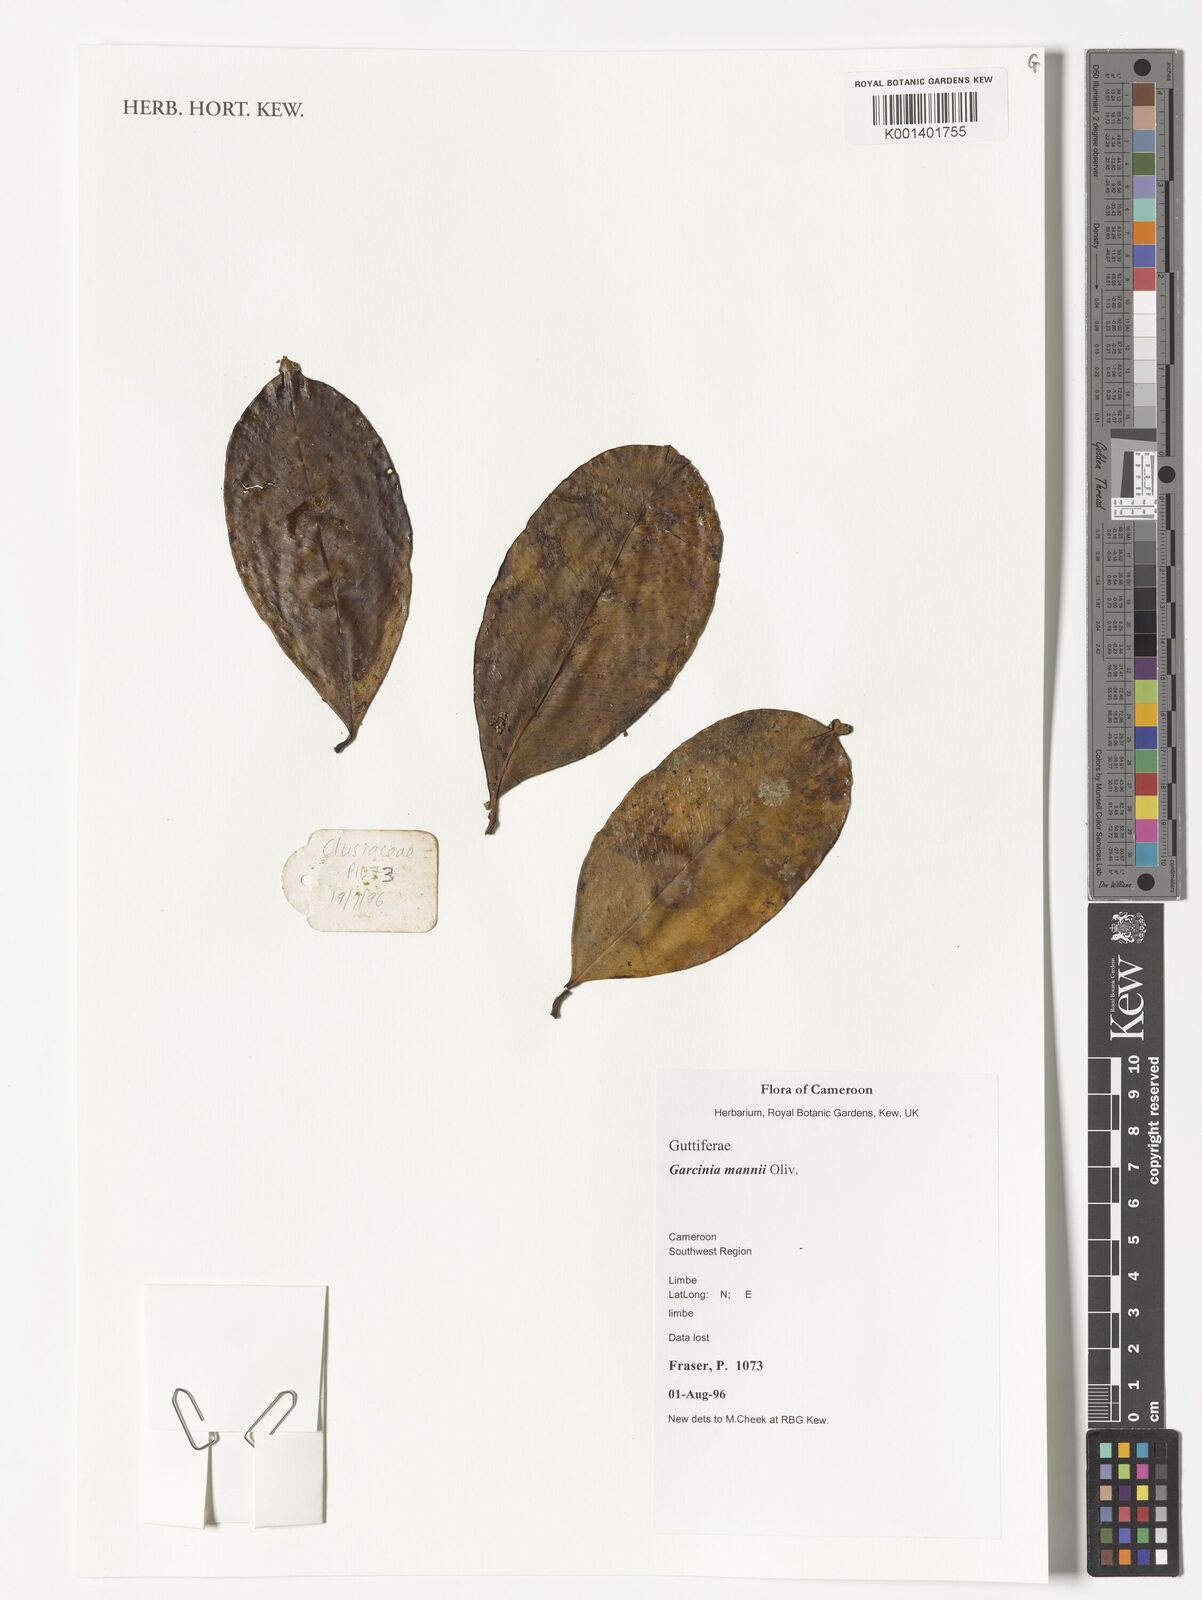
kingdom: Plantae
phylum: Tracheophyta
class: Magnoliopsida
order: Malpighiales
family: Clusiaceae
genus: Garcinia
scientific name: Garcinia mannii
